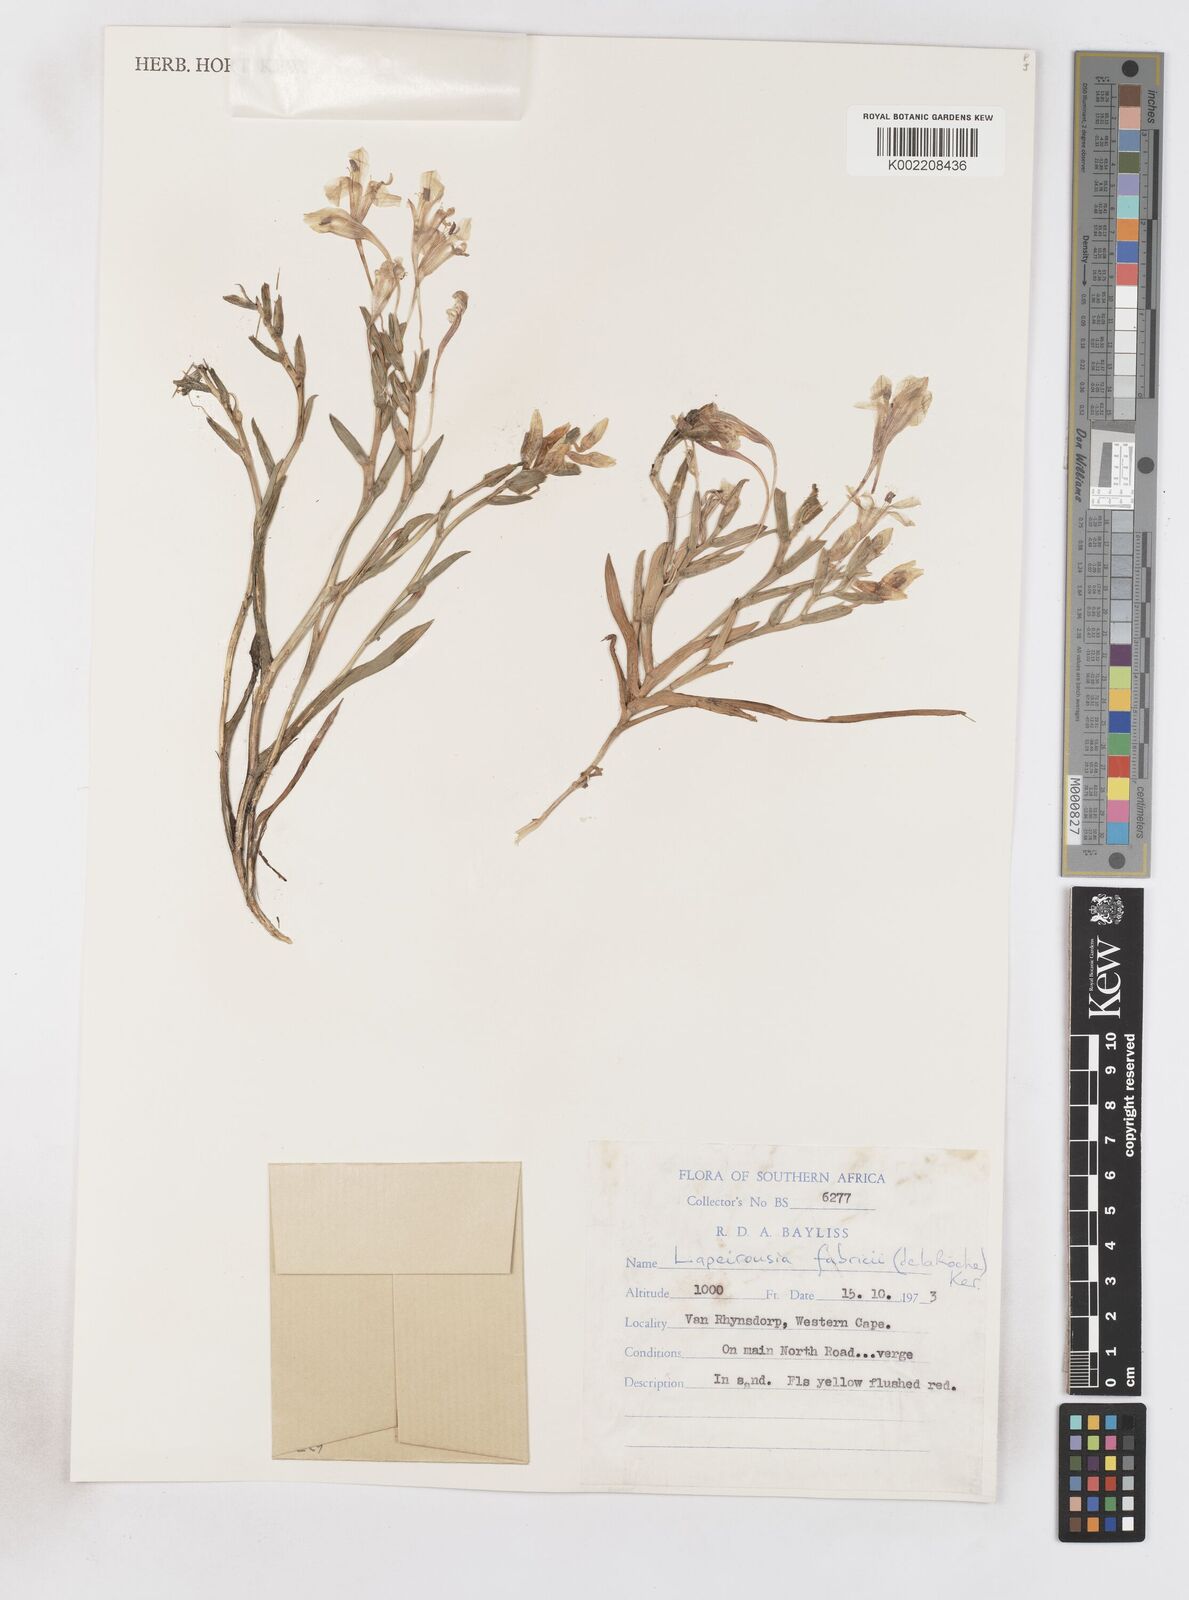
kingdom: Plantae
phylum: Tracheophyta
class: Liliopsida
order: Asparagales
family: Iridaceae
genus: Lapeirousia
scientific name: Lapeirousia fabricii
